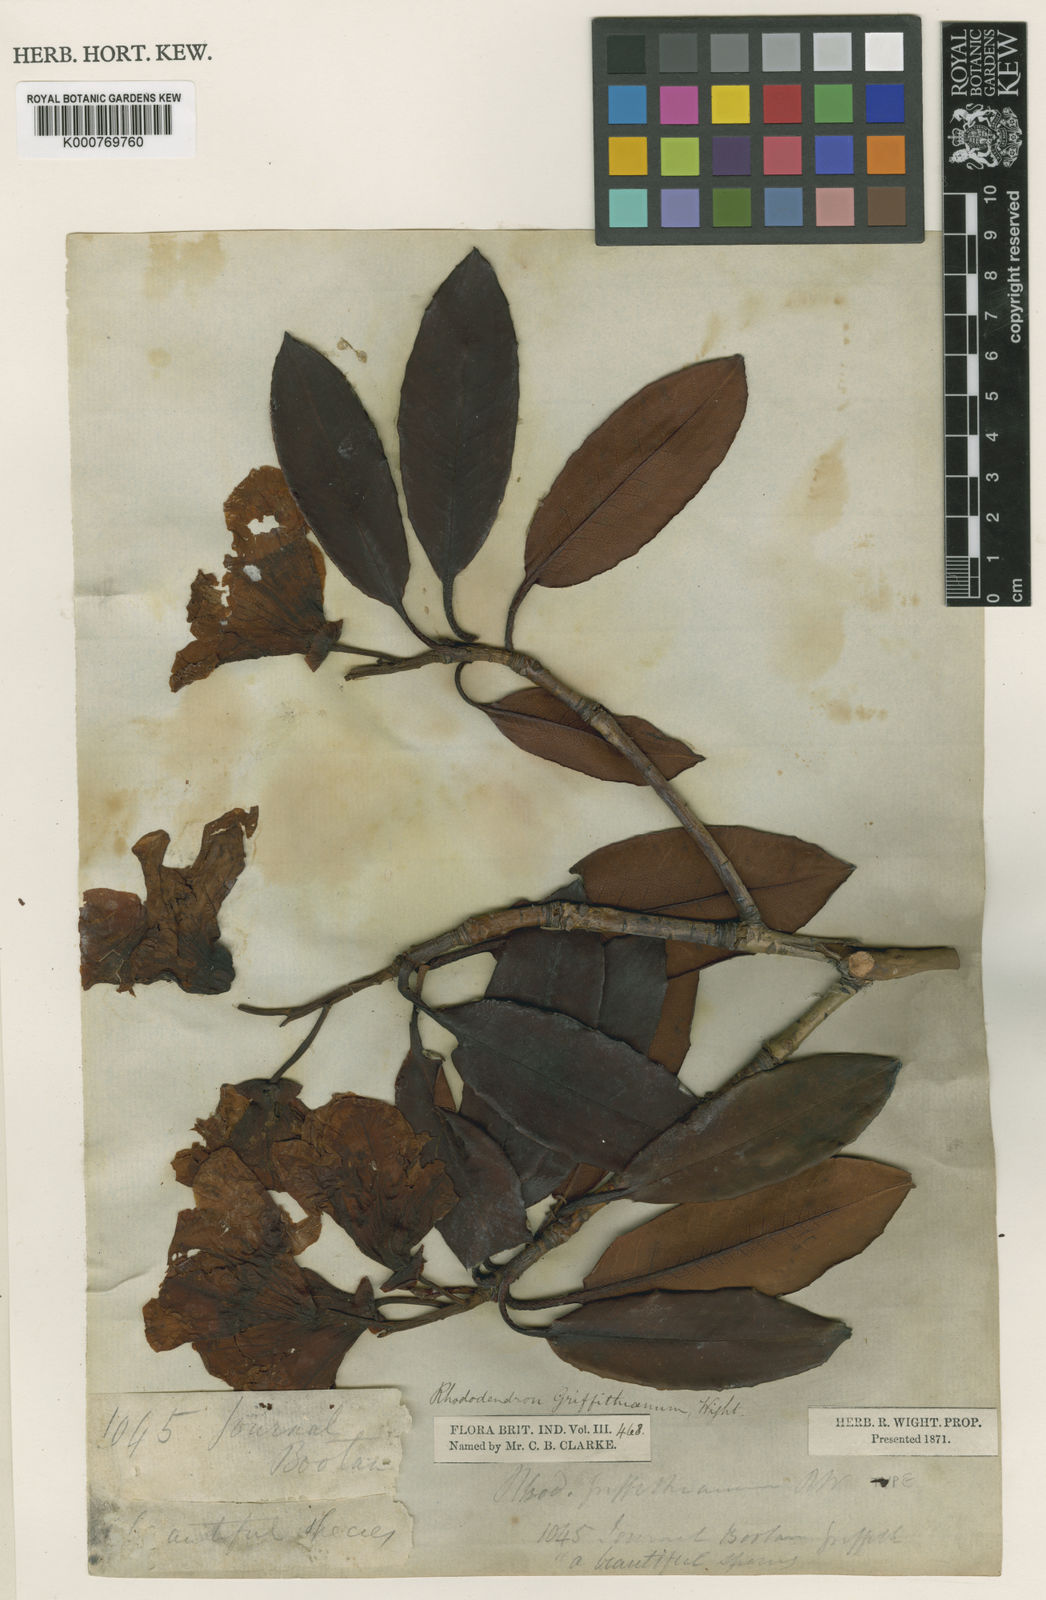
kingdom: Plantae
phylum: Tracheophyta
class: Magnoliopsida
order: Ericales
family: Ericaceae
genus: Rhododendron
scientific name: Rhododendron griffithianum
